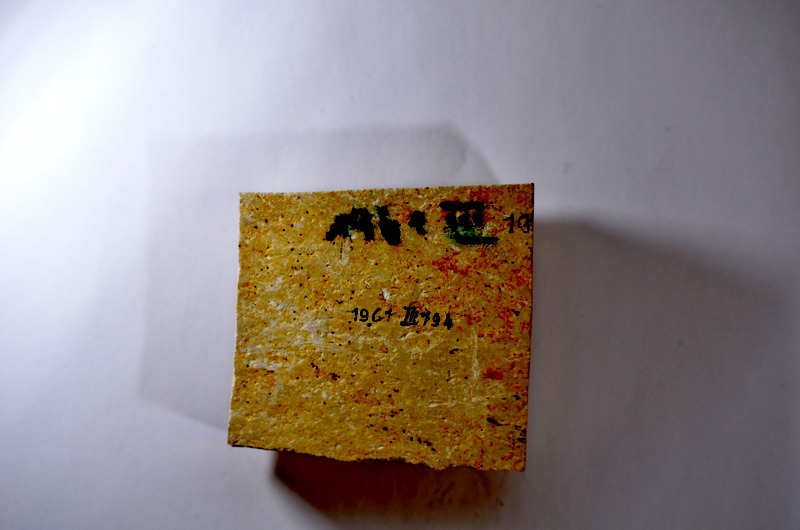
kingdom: Animalia
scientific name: Animalia
